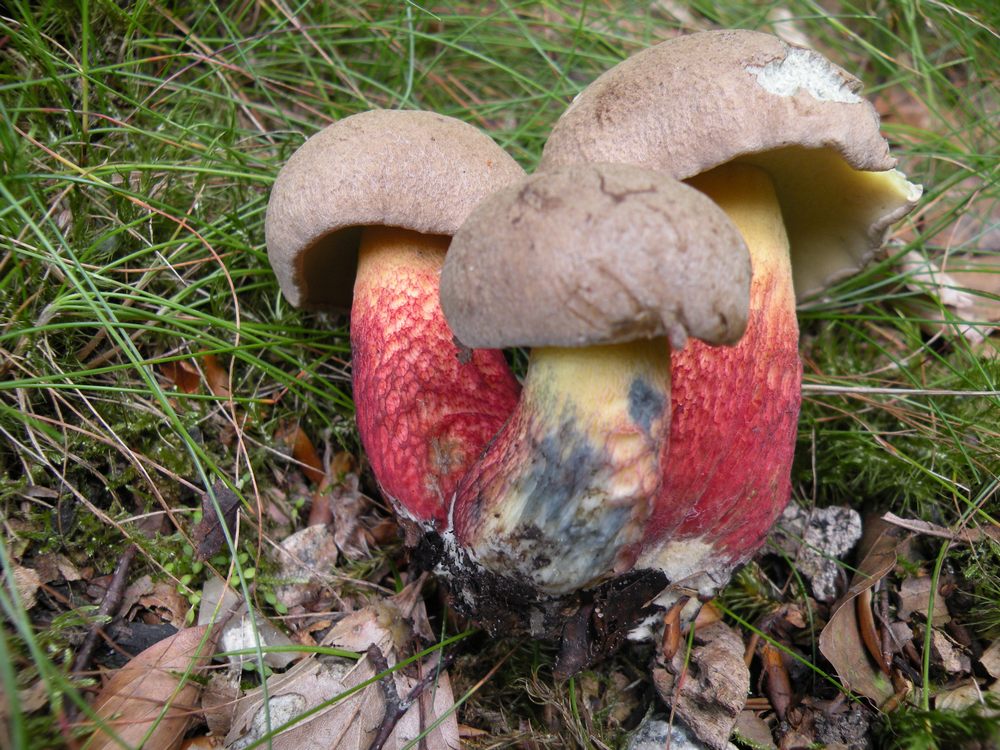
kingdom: Fungi
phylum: Basidiomycota
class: Agaricomycetes
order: Boletales
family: Boletaceae
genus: Caloboletus
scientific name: Caloboletus calopus
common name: skønfodet rørhat
